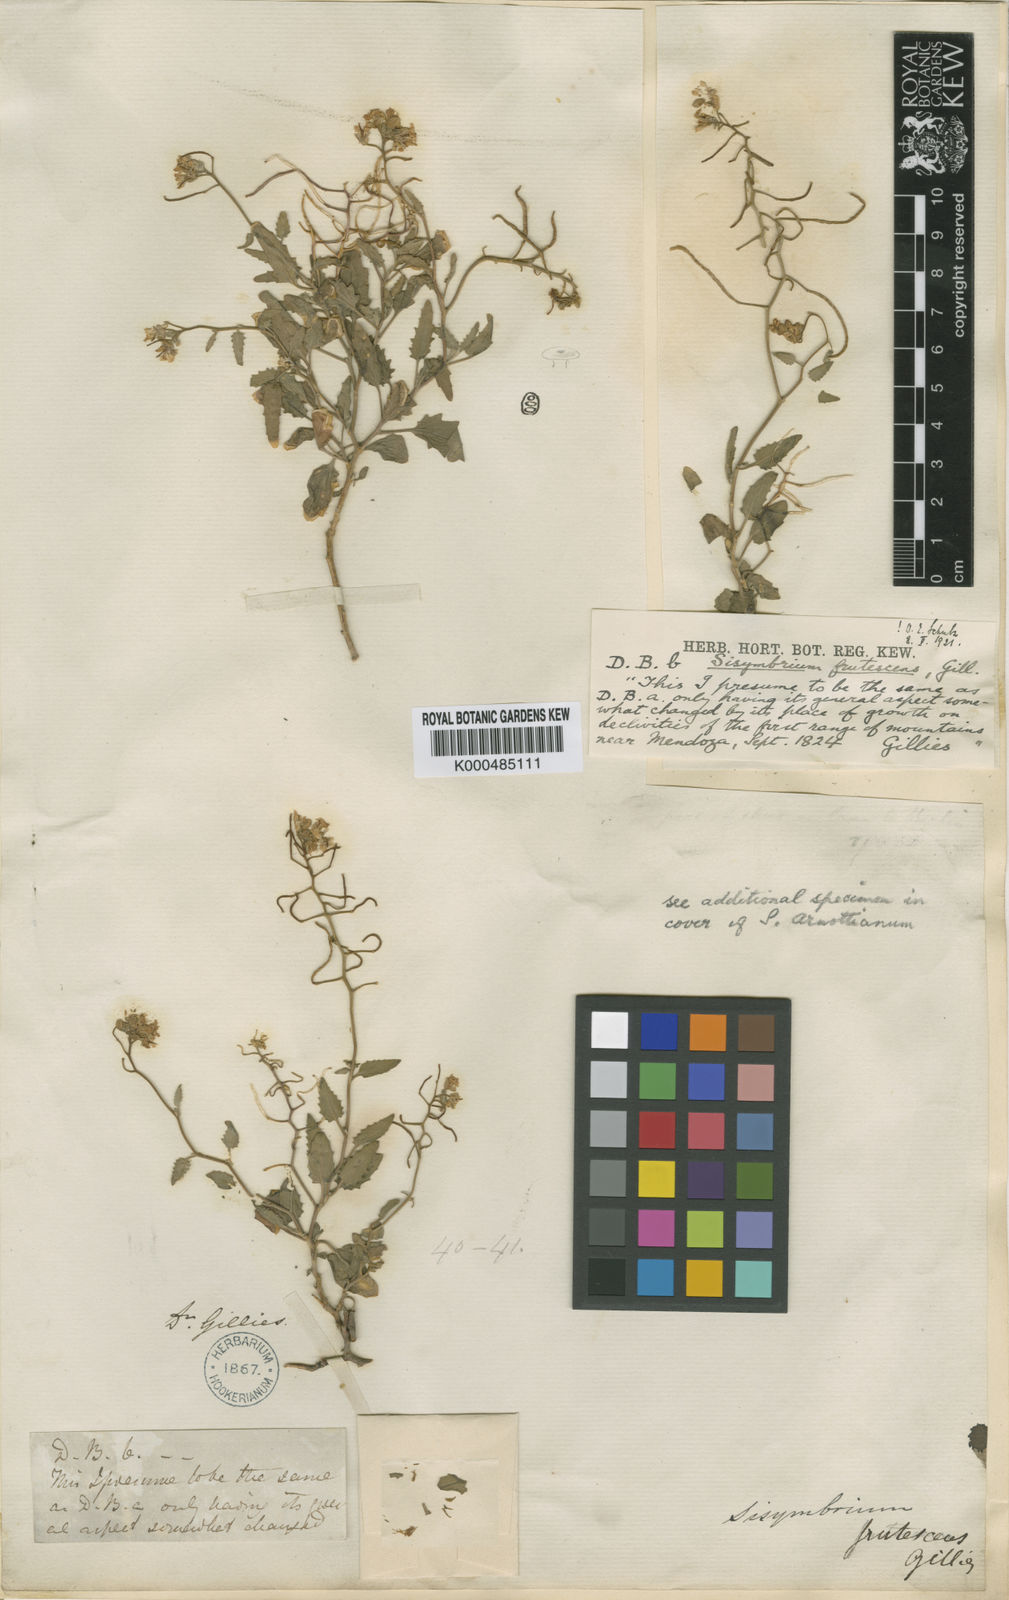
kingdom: Plantae
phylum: Tracheophyta
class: Magnoliopsida
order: Brassicales
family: Brassicaceae
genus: Neuontobotrys
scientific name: Neuontobotrys frutescens
